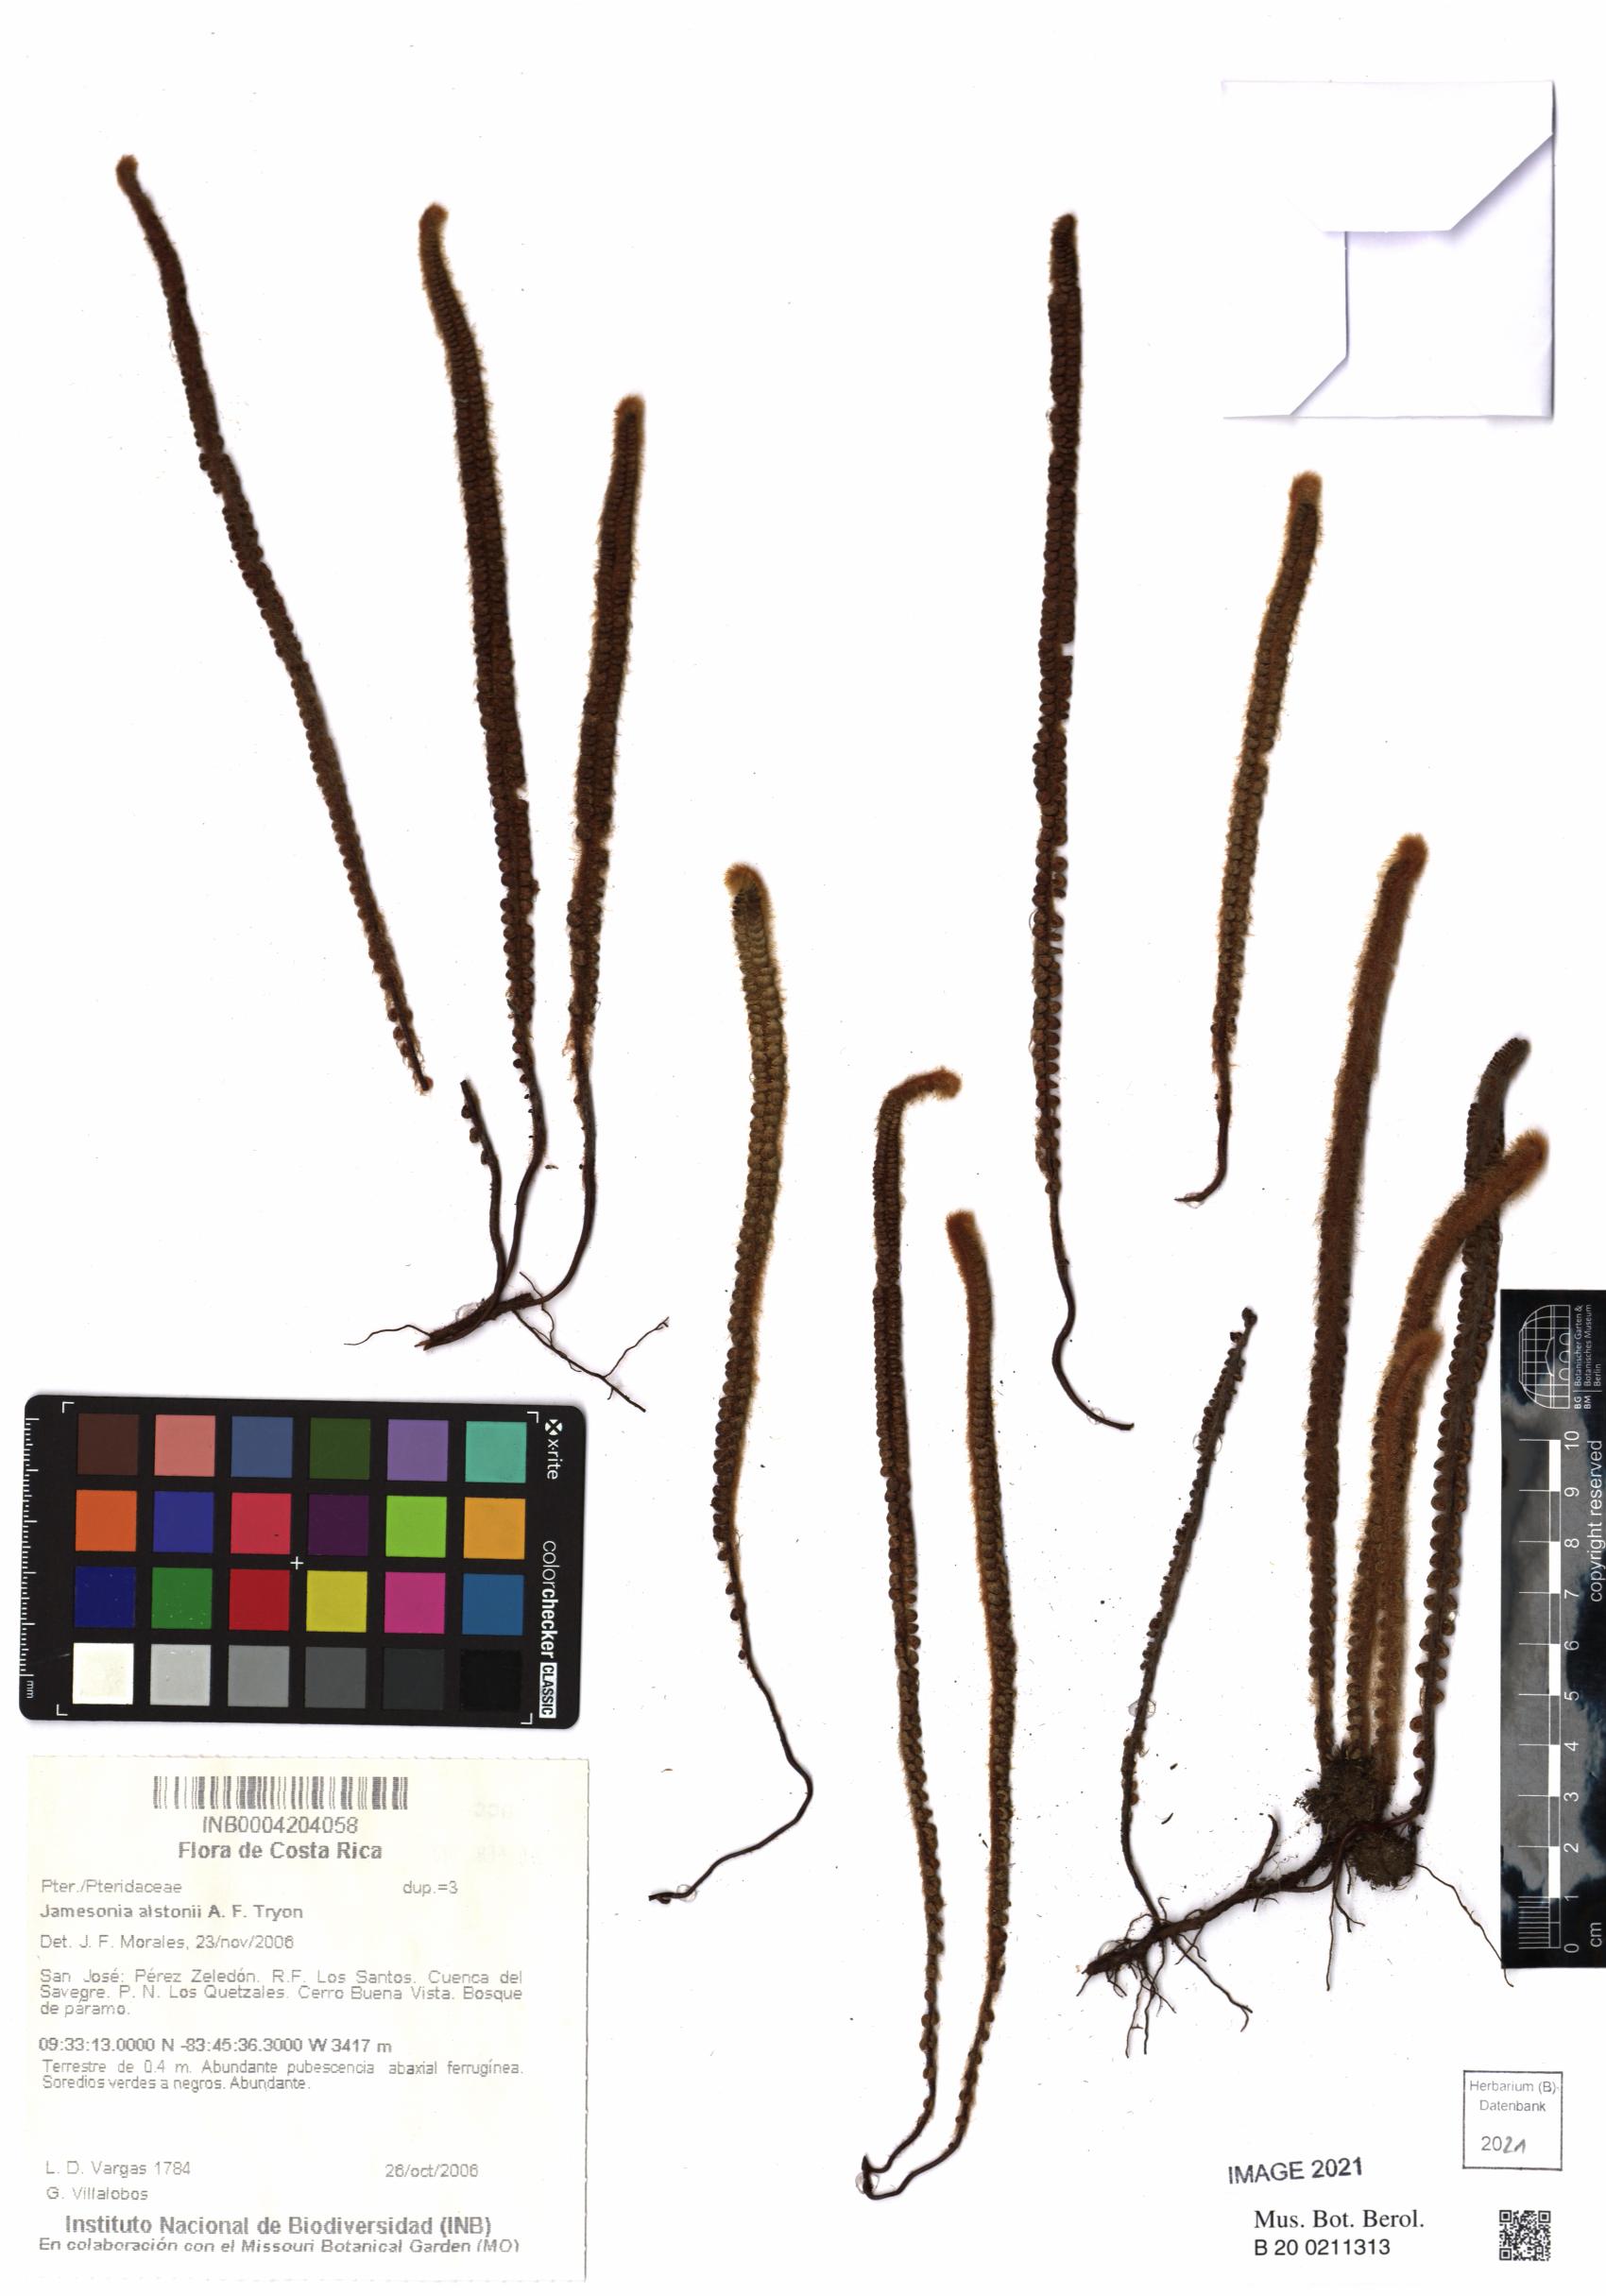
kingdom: Plantae
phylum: Tracheophyta
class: Polypodiopsida
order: Polypodiales
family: Pteridaceae
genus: Jamesonia
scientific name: Jamesonia alstonii
